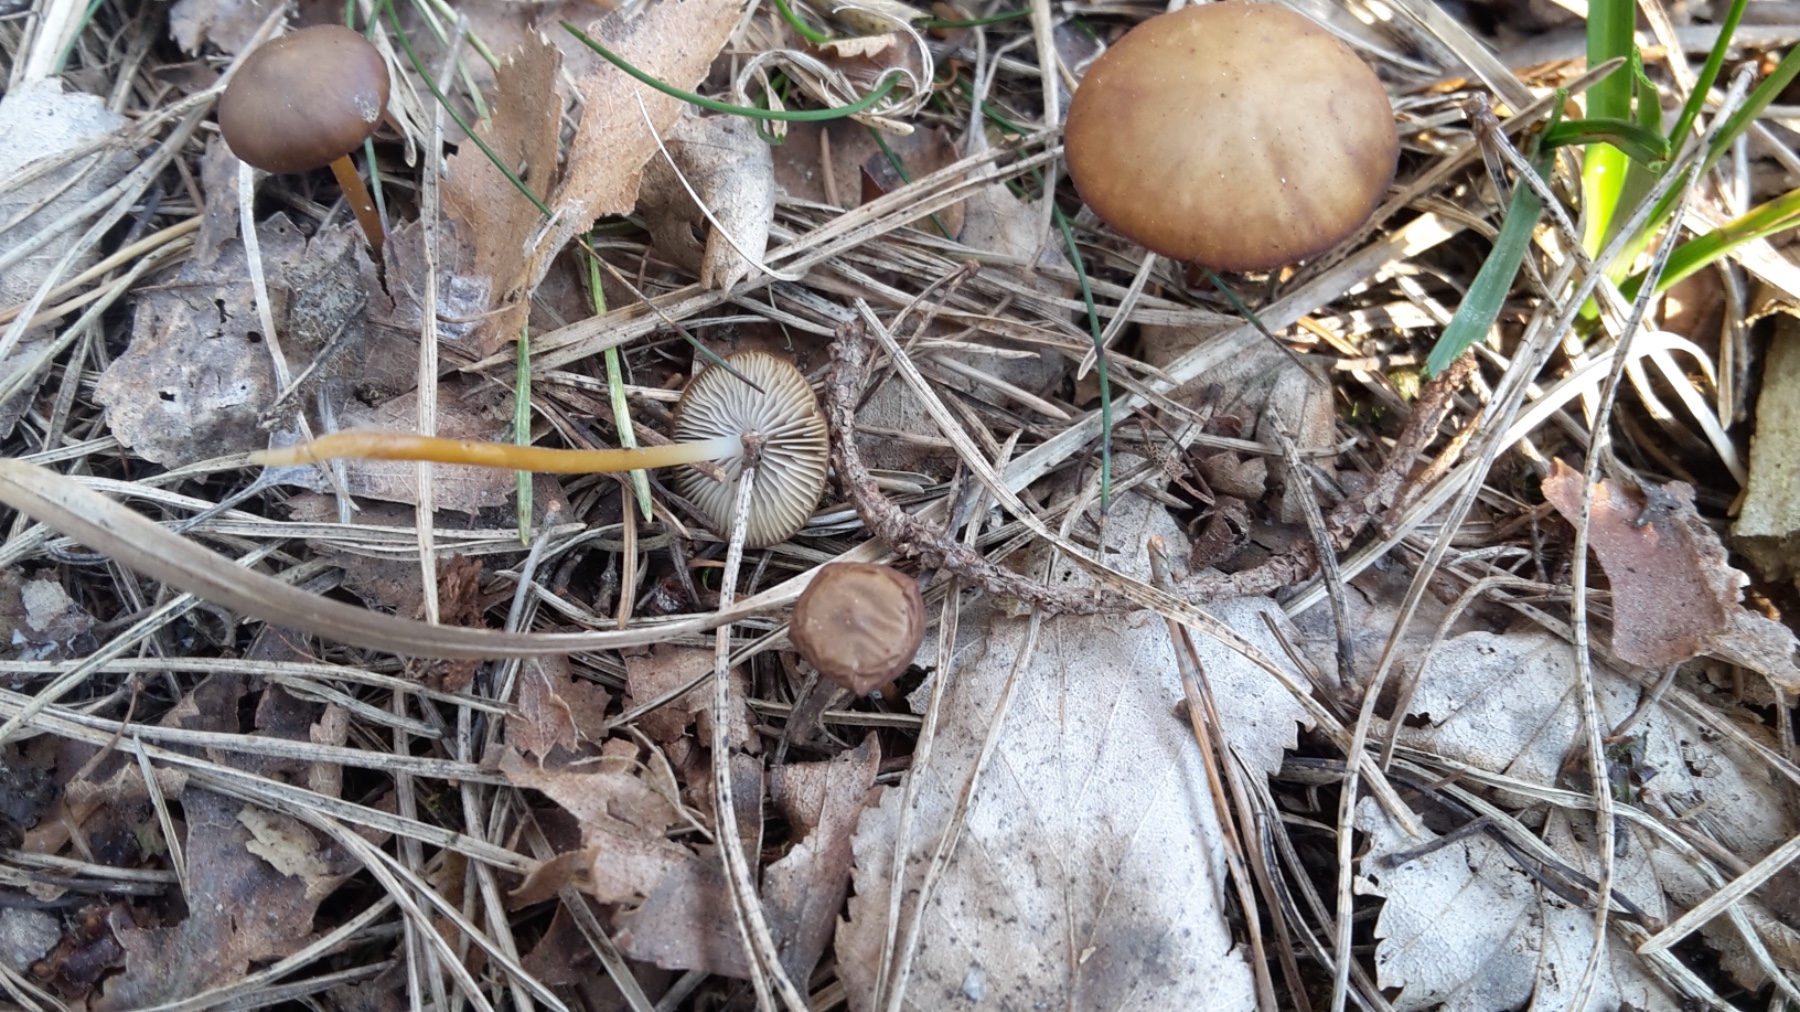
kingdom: Fungi
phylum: Basidiomycota
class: Agaricomycetes
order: Agaricales
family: Physalacriaceae
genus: Strobilurus
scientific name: Strobilurus
